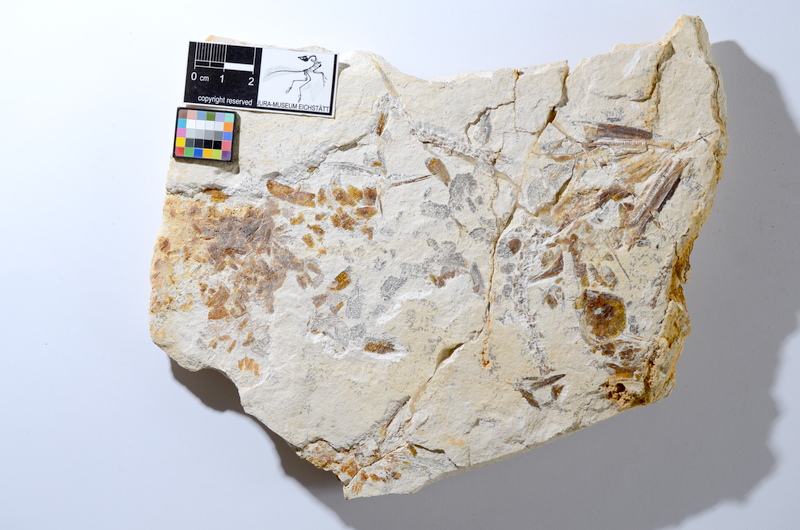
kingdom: Animalia
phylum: Chordata
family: Aspidorhynchidae
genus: Aspidorhynchus
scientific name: Aspidorhynchus acutirostris
